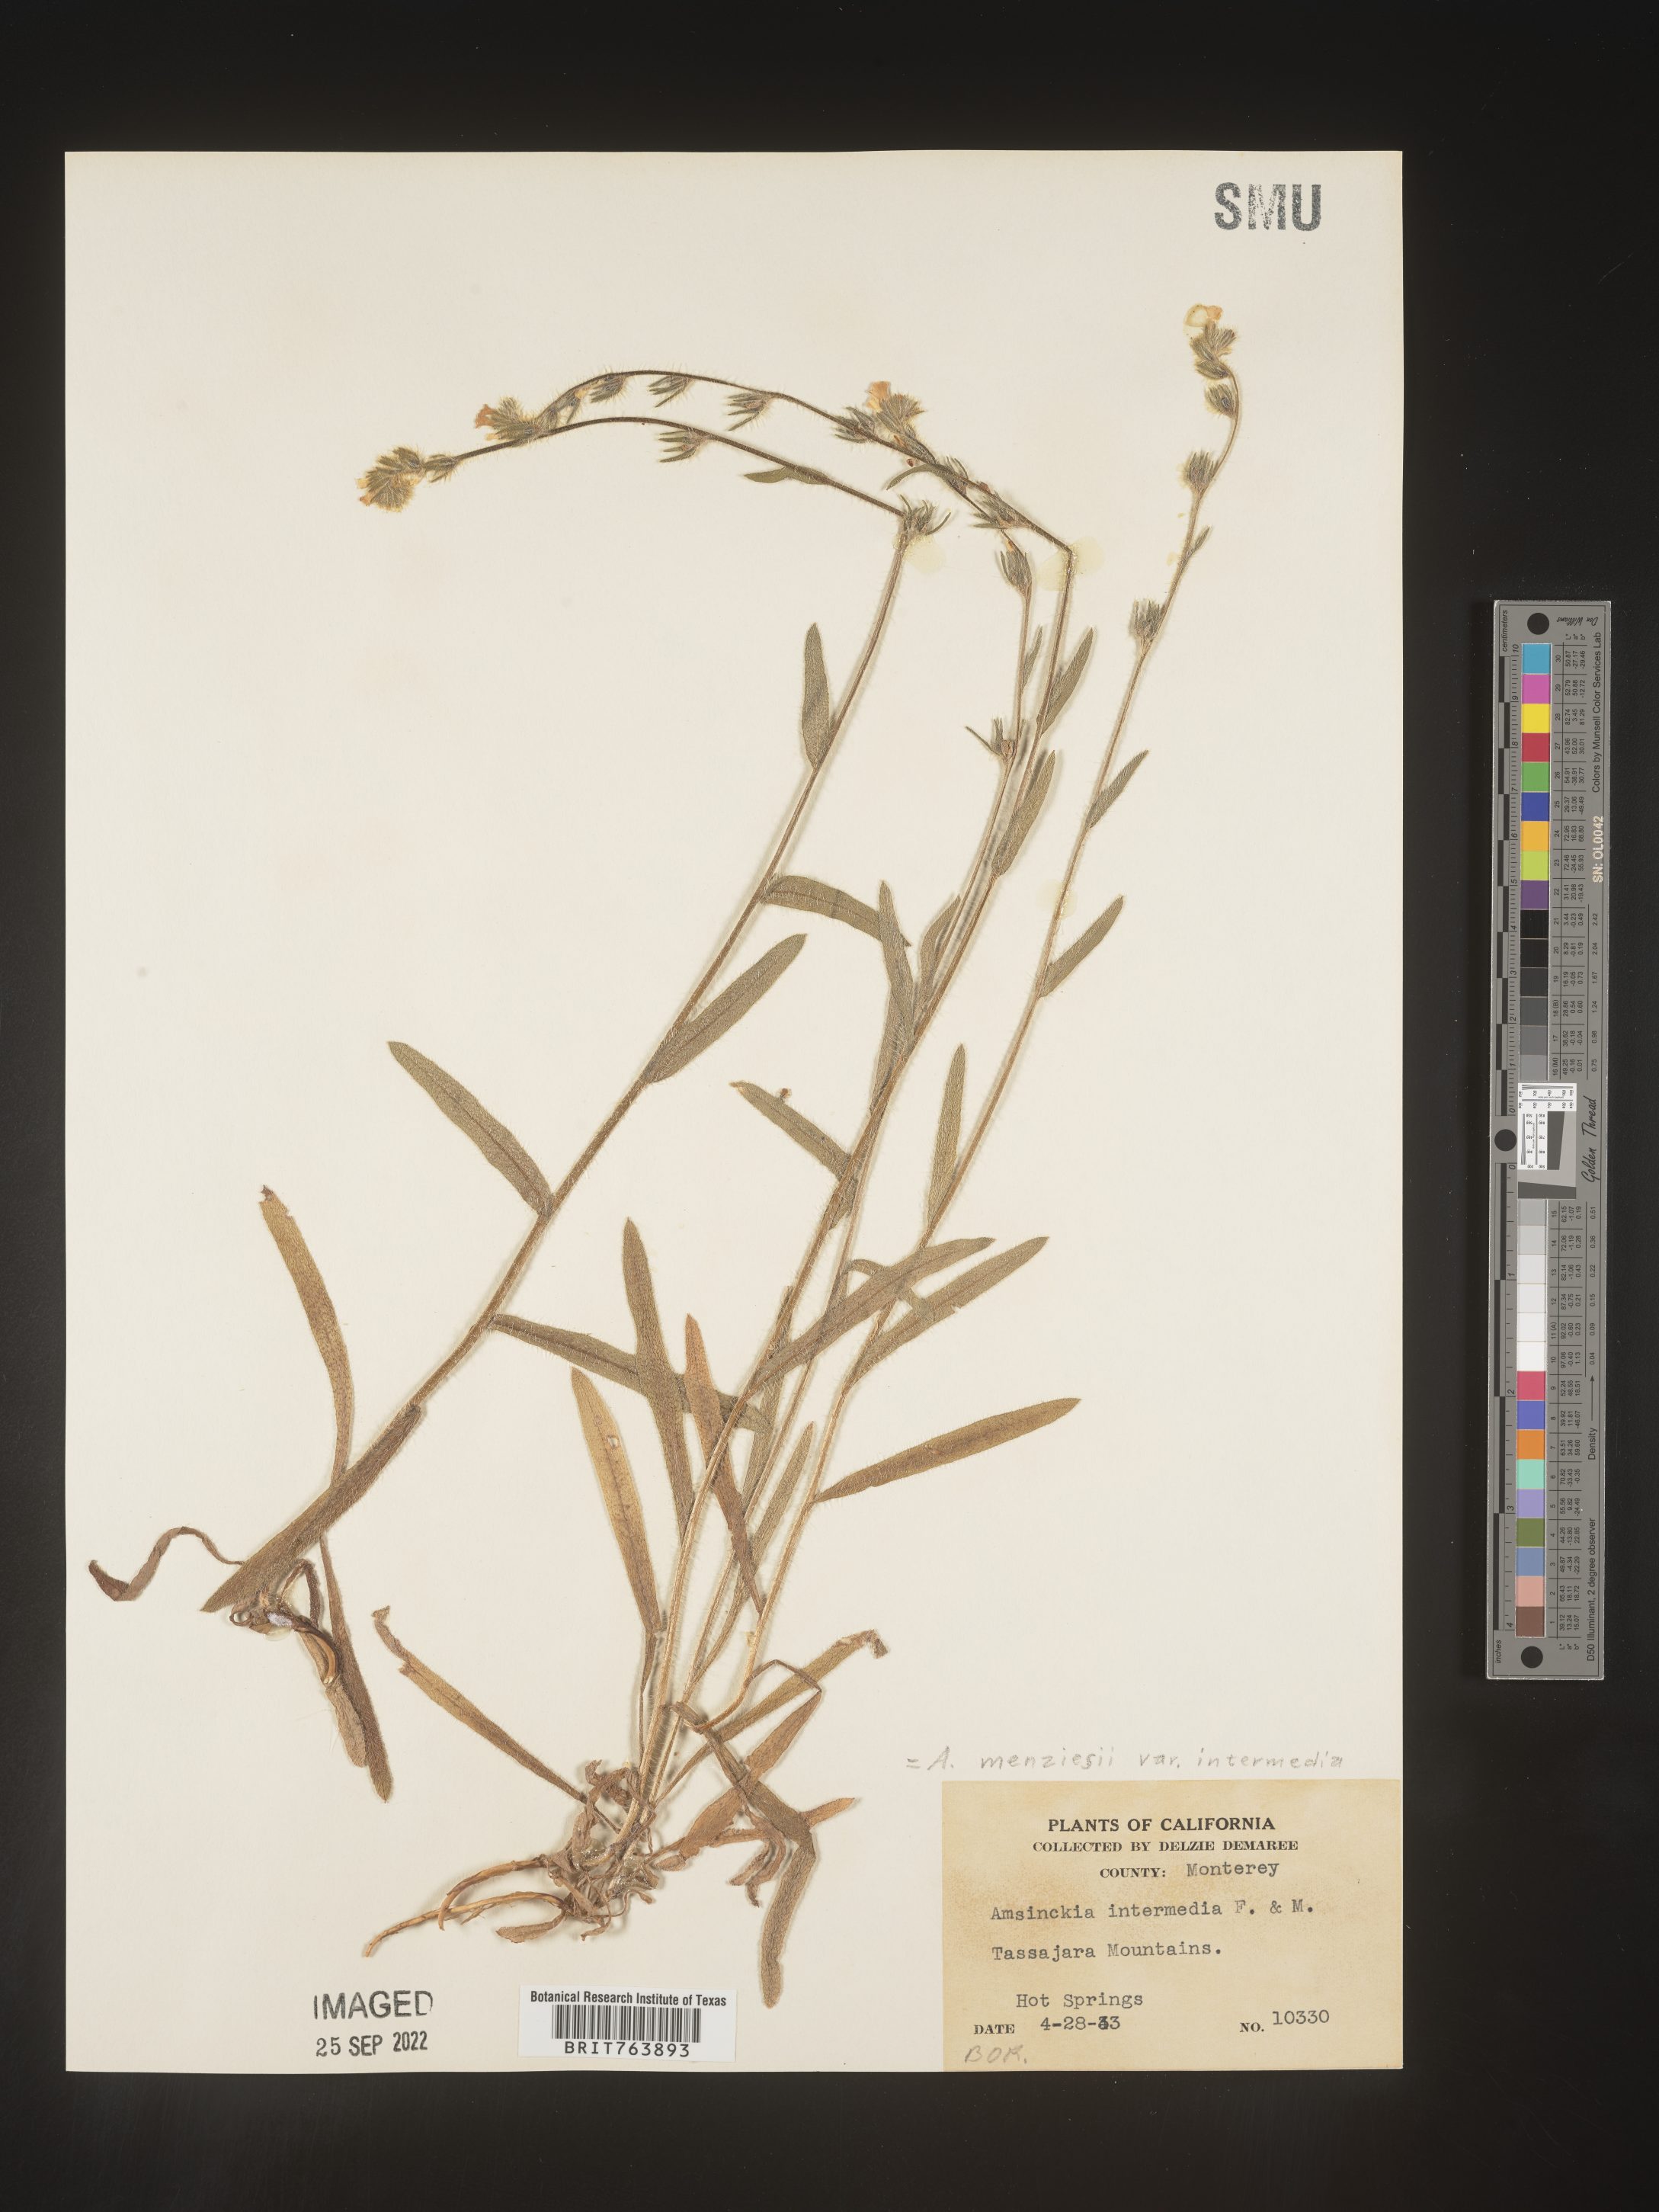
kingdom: Plantae
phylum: Tracheophyta
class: Magnoliopsida
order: Boraginales
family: Boraginaceae
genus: Amsinckia
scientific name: Amsinckia menziesii
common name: Menzies' fiddleneck
